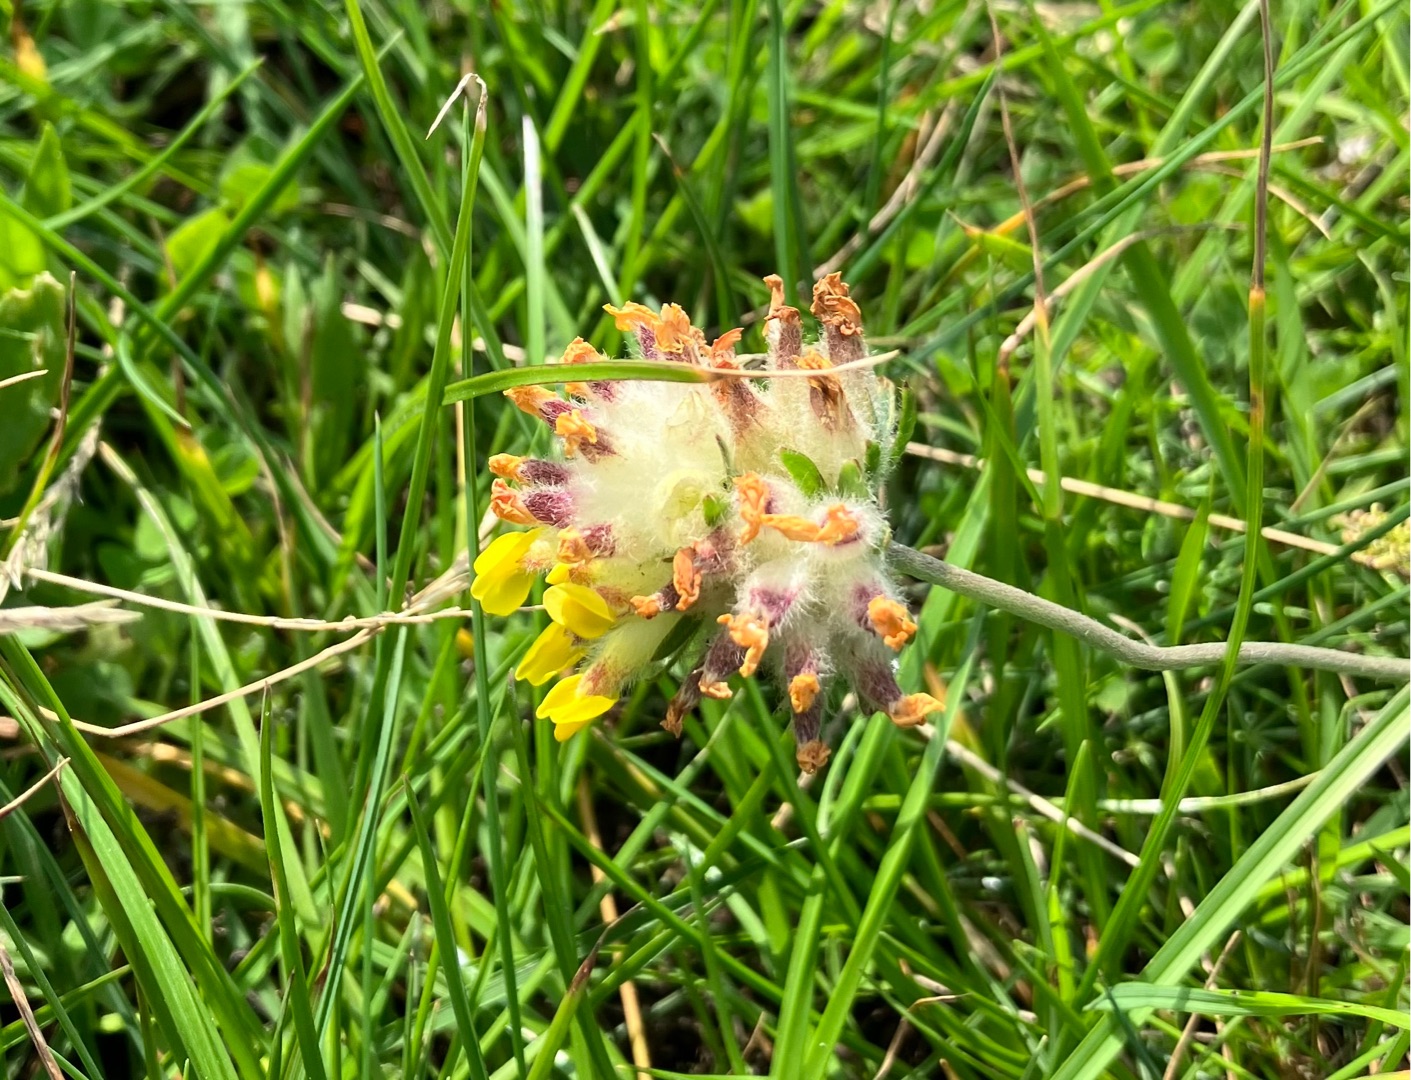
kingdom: Plantae
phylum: Tracheophyta
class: Magnoliopsida
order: Fabales
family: Fabaceae
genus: Anthyllis
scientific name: Anthyllis vulneraria
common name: Rundbælg
